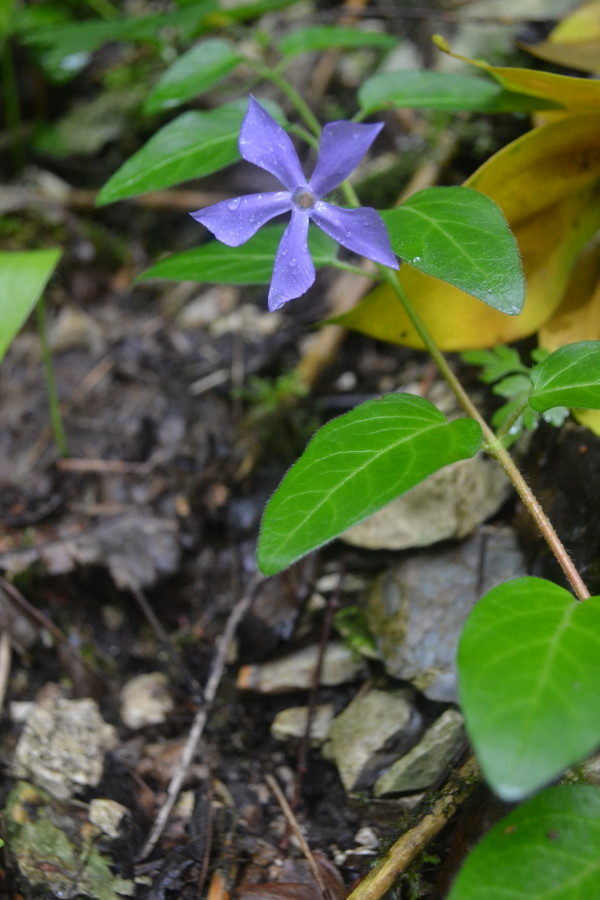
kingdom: Plantae
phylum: Tracheophyta
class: Magnoliopsida
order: Gentianales
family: Apocynaceae
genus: Vinca
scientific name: Vinca herbacea
